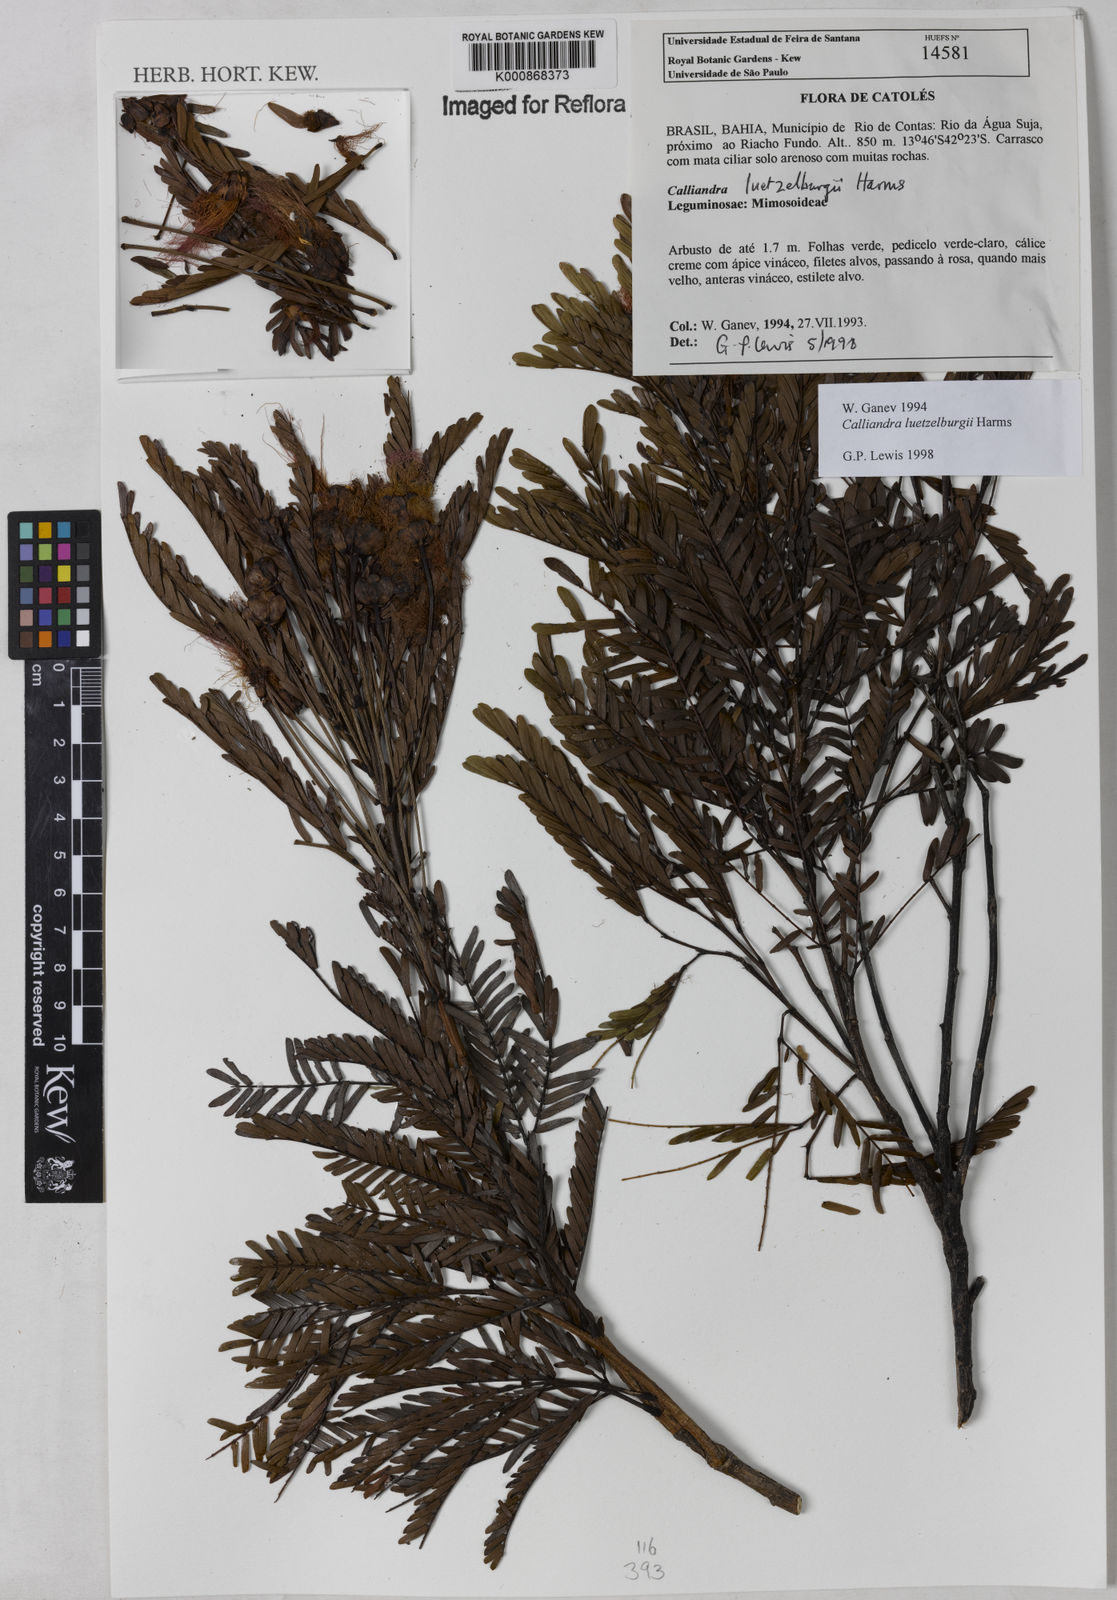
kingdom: Plantae
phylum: Tracheophyta
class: Magnoliopsida
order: Fabales
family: Fabaceae
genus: Calliandra
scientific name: Calliandra luetzelburgii
